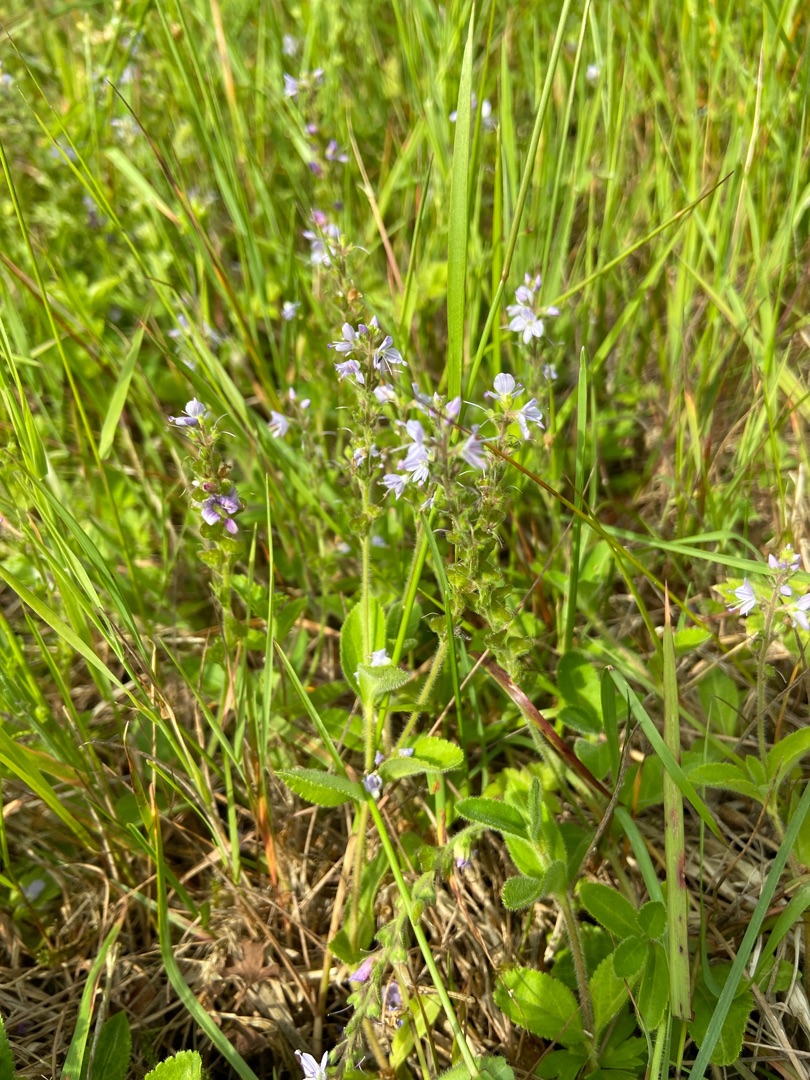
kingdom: Plantae
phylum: Tracheophyta
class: Magnoliopsida
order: Lamiales
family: Plantaginaceae
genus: Veronica
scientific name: Veronica officinalis
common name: Læge-ærenpris
